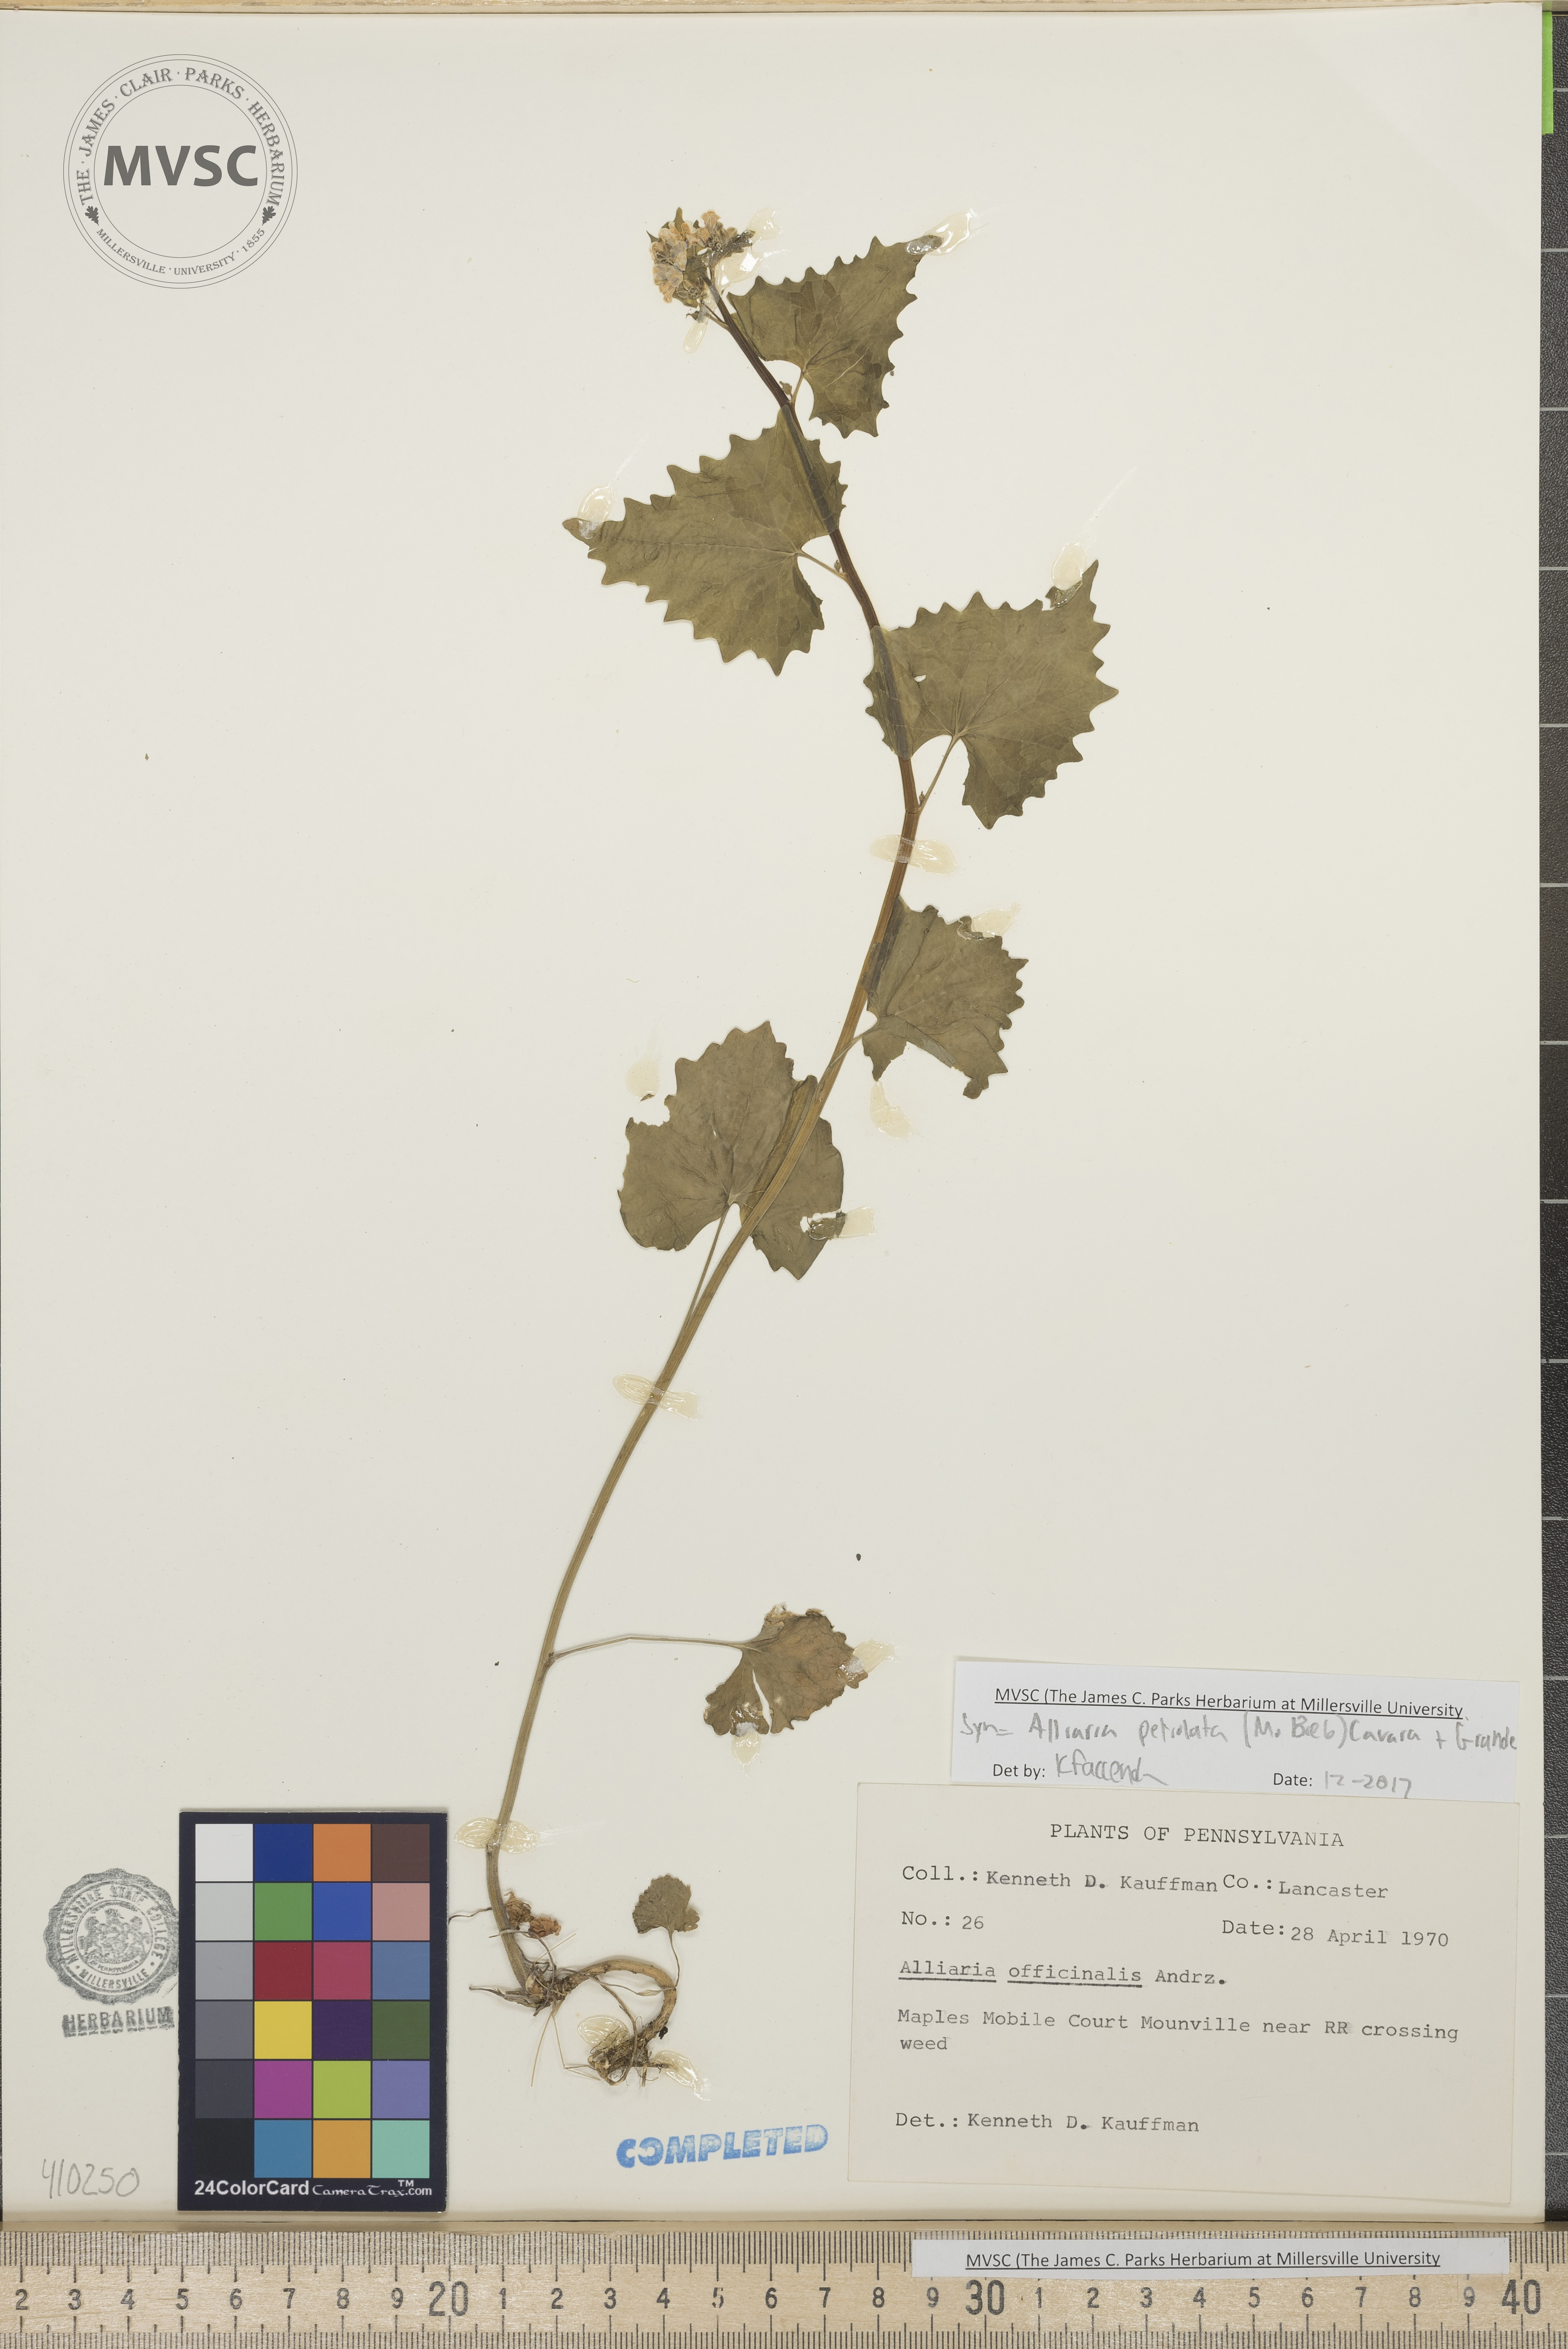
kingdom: Plantae
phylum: Tracheophyta
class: Magnoliopsida
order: Brassicales
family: Brassicaceae
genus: Alliaria
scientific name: Alliaria petiolata
